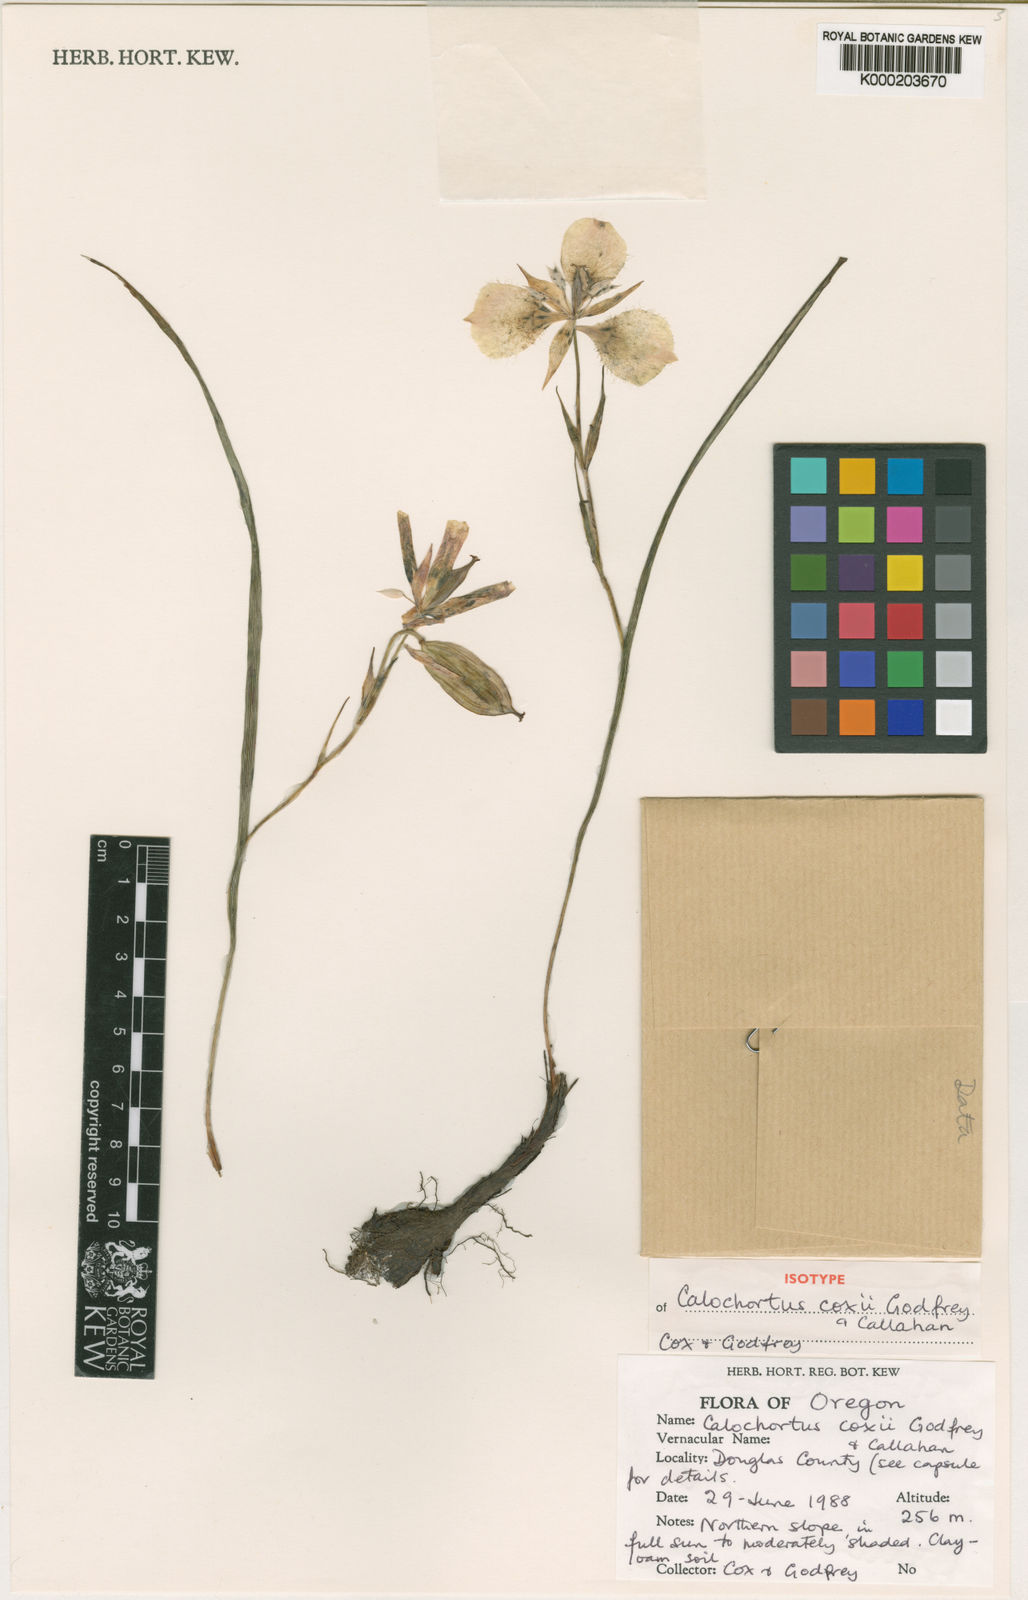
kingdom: Plantae
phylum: Tracheophyta
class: Liliopsida
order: Liliales
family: Liliaceae
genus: Calochortus
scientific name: Calochortus coxii
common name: Cox's mariposa-lily
